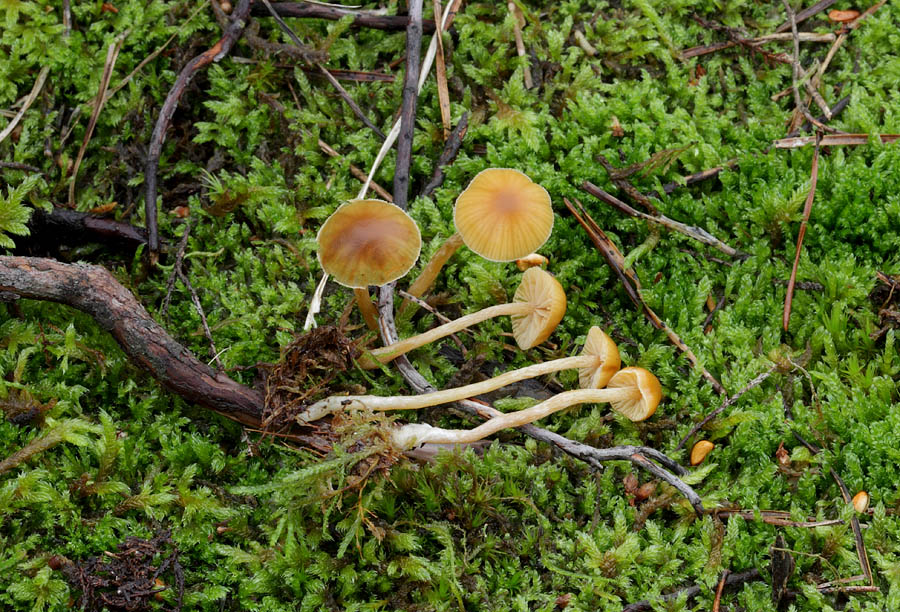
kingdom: Fungi
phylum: Basidiomycota
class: Agaricomycetes
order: Agaricales
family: Hymenogastraceae
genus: Galerina
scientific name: Galerina pumila
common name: honninggul hjelmhat
